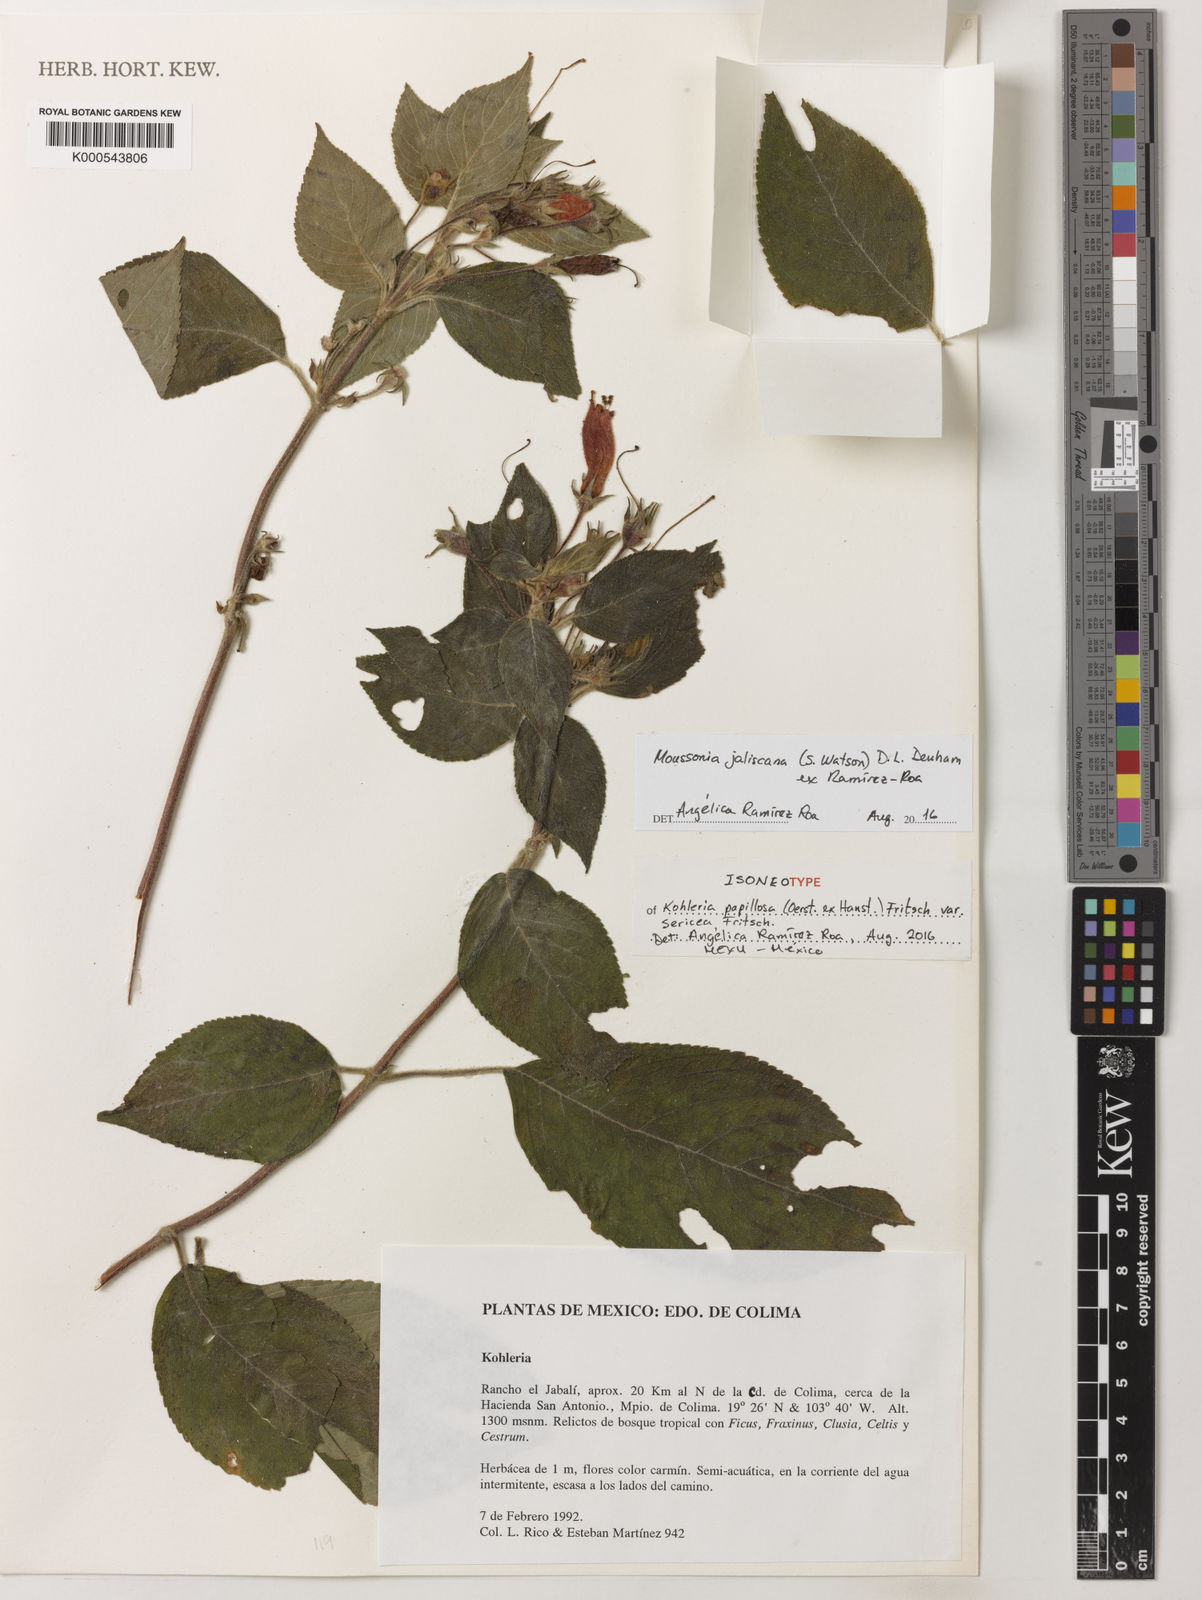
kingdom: Plantae
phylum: Tracheophyta
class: Magnoliopsida
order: Lamiales
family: Gesneriaceae
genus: Moussonia
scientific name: Moussonia jaliscana
